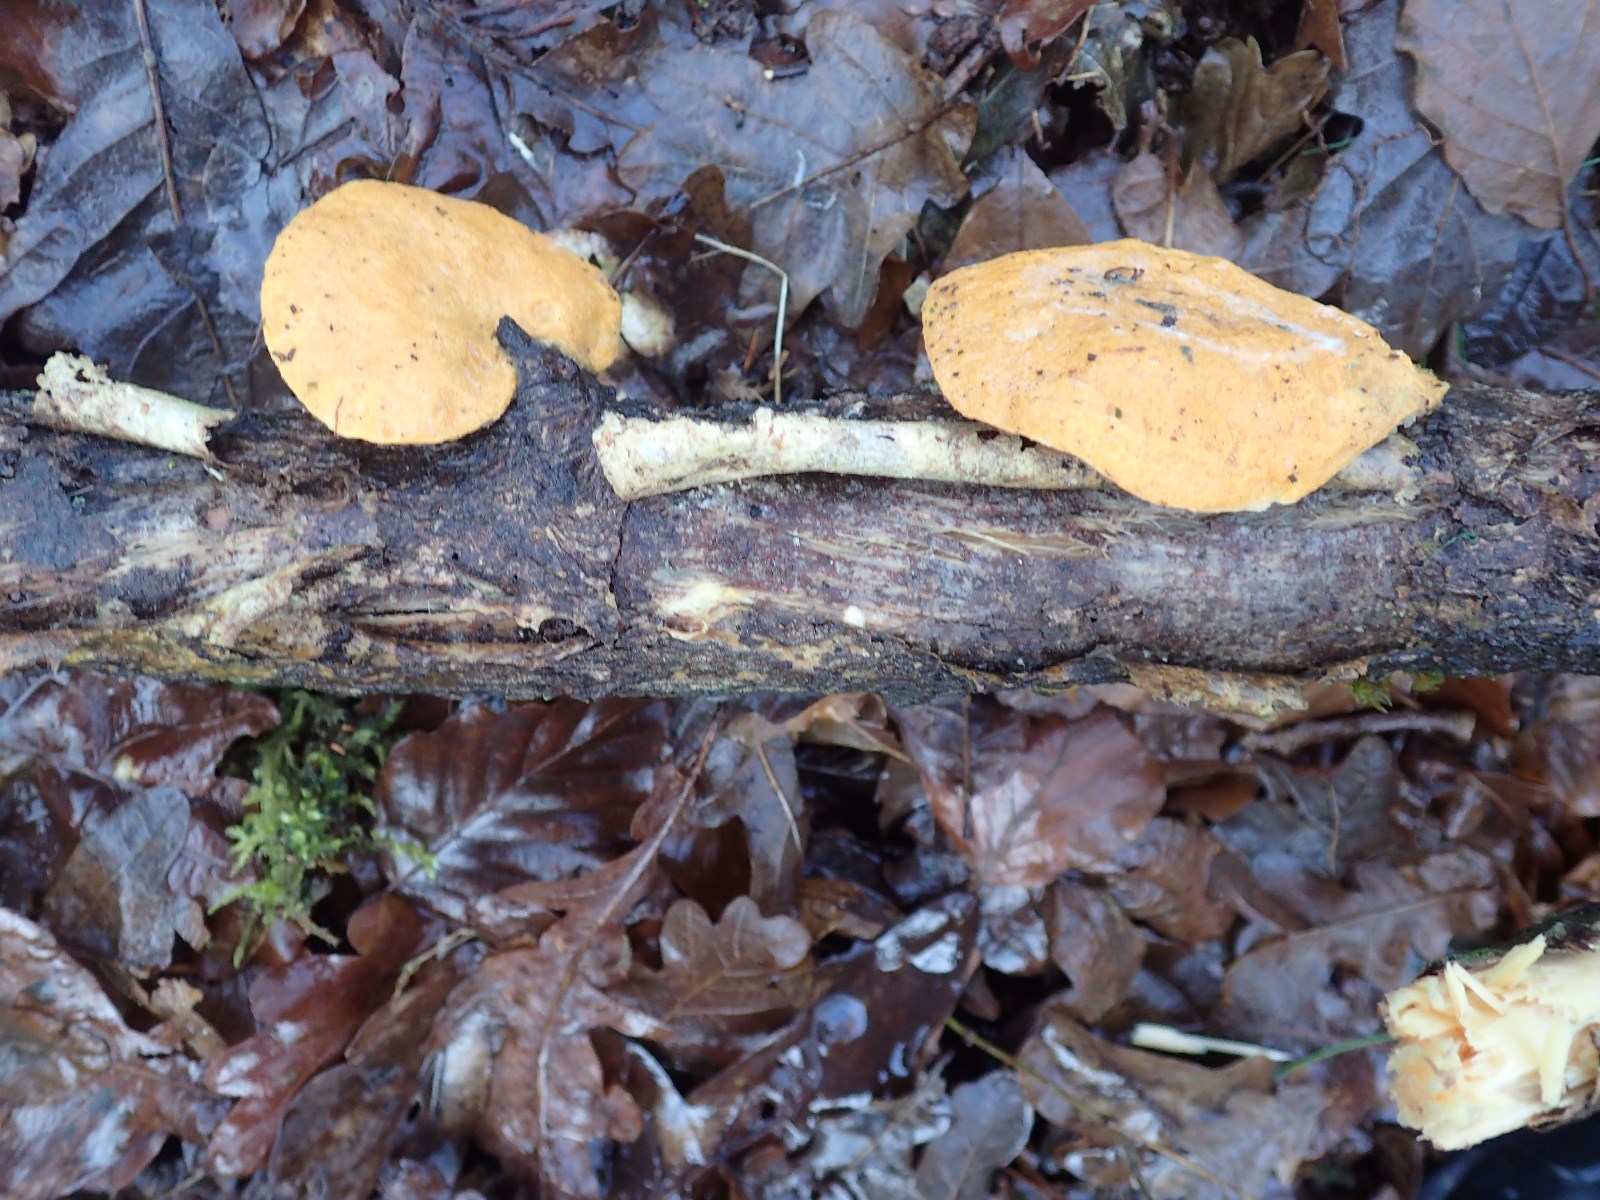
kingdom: Fungi
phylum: Ascomycota
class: Sordariomycetes
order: Hypocreales
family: Hypocreaceae
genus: Protocrea
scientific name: Protocrea pallida
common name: bleg kødkerne
